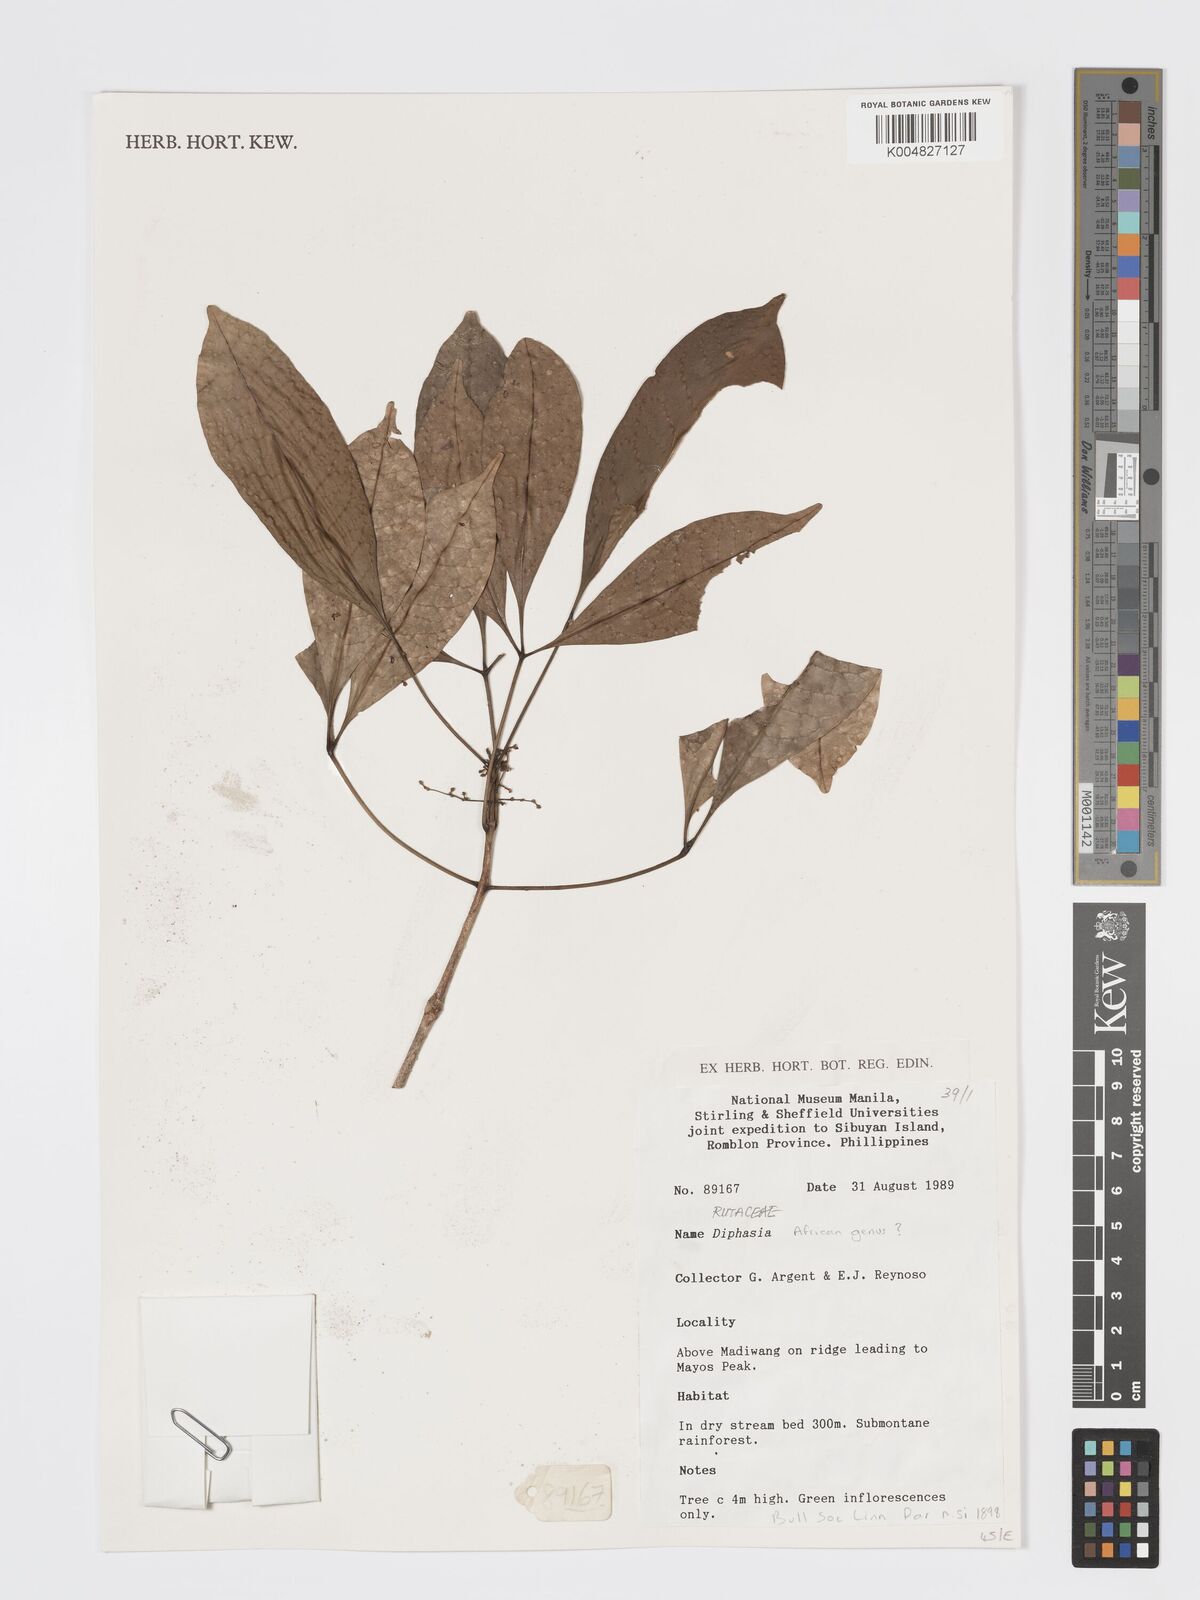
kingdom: Plantae
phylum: Tracheophyta
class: Magnoliopsida
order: Sapindales
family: Rutaceae
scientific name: Rutaceae
